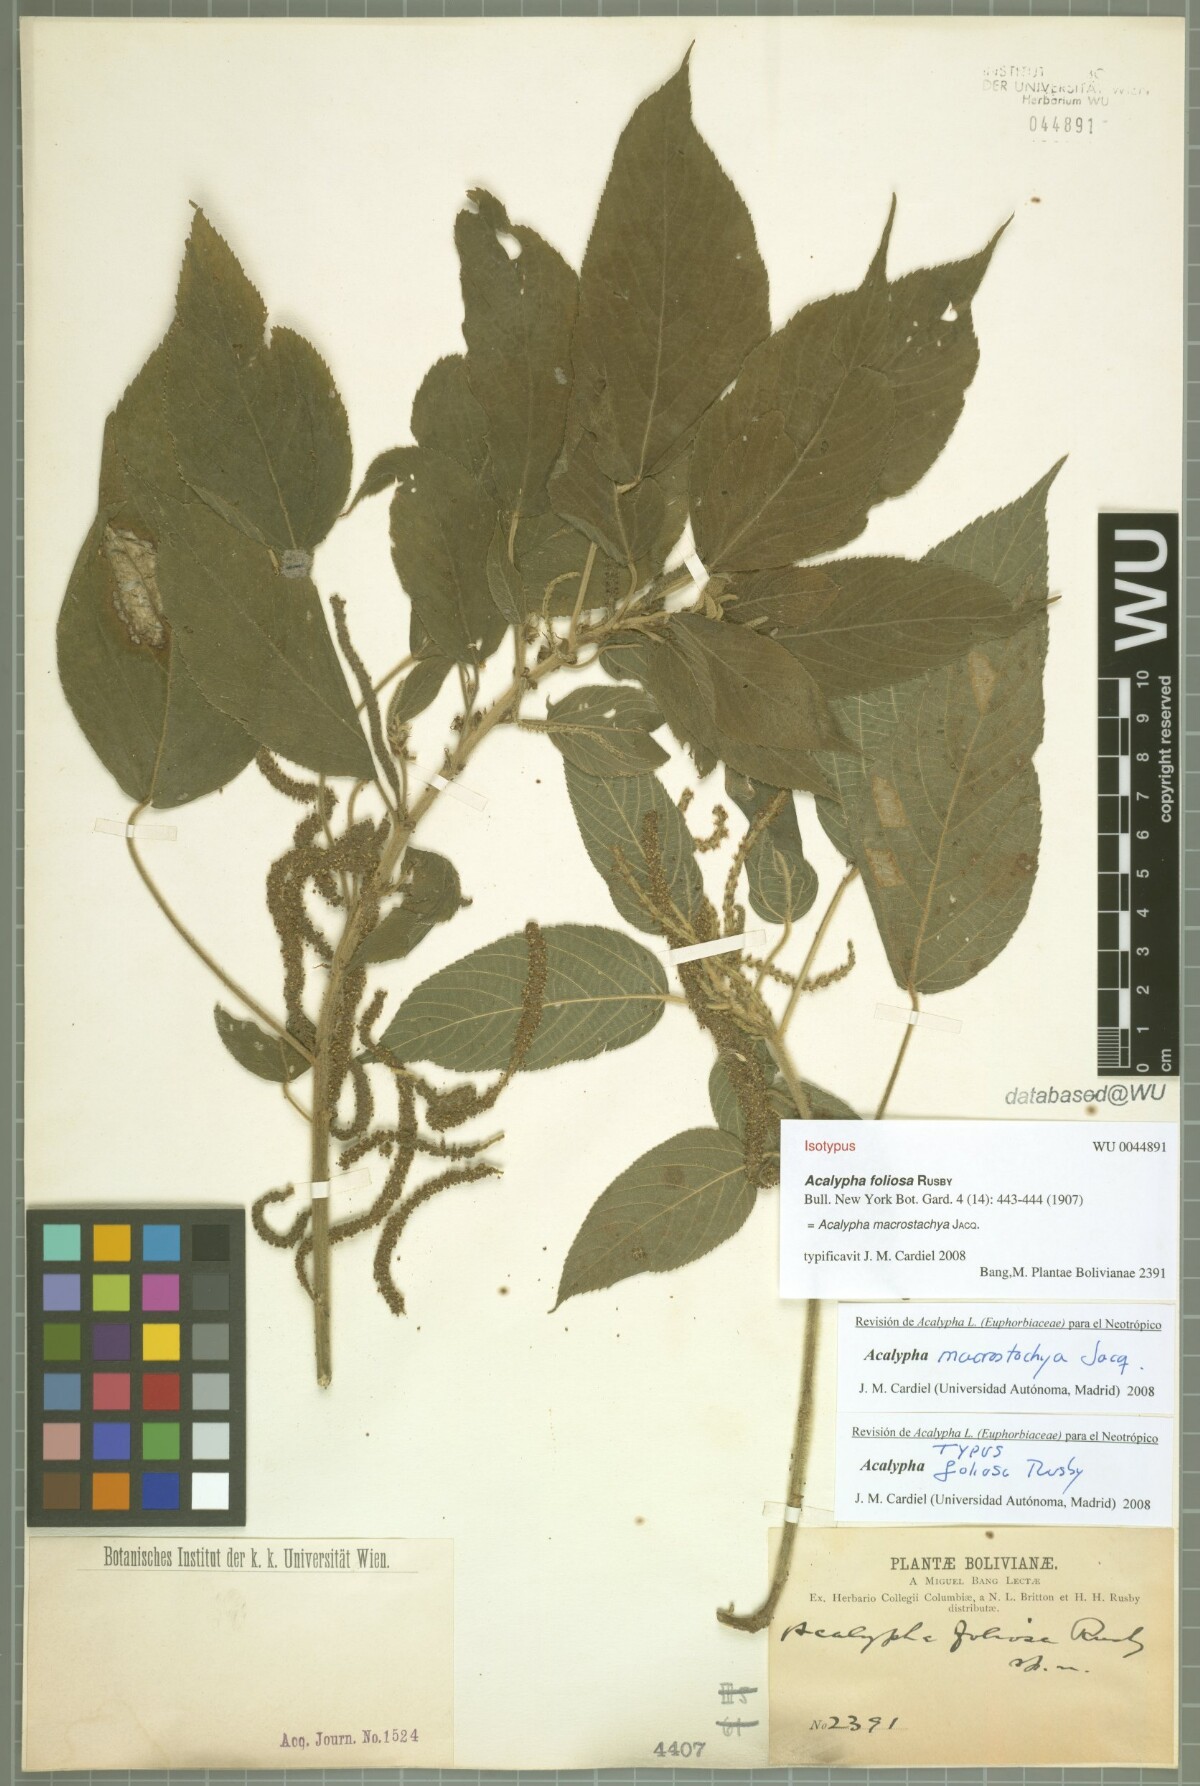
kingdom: Plantae
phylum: Tracheophyta
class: Magnoliopsida
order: Malpighiales
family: Euphorbiaceae
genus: Acalypha
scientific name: Acalypha macrostachya
